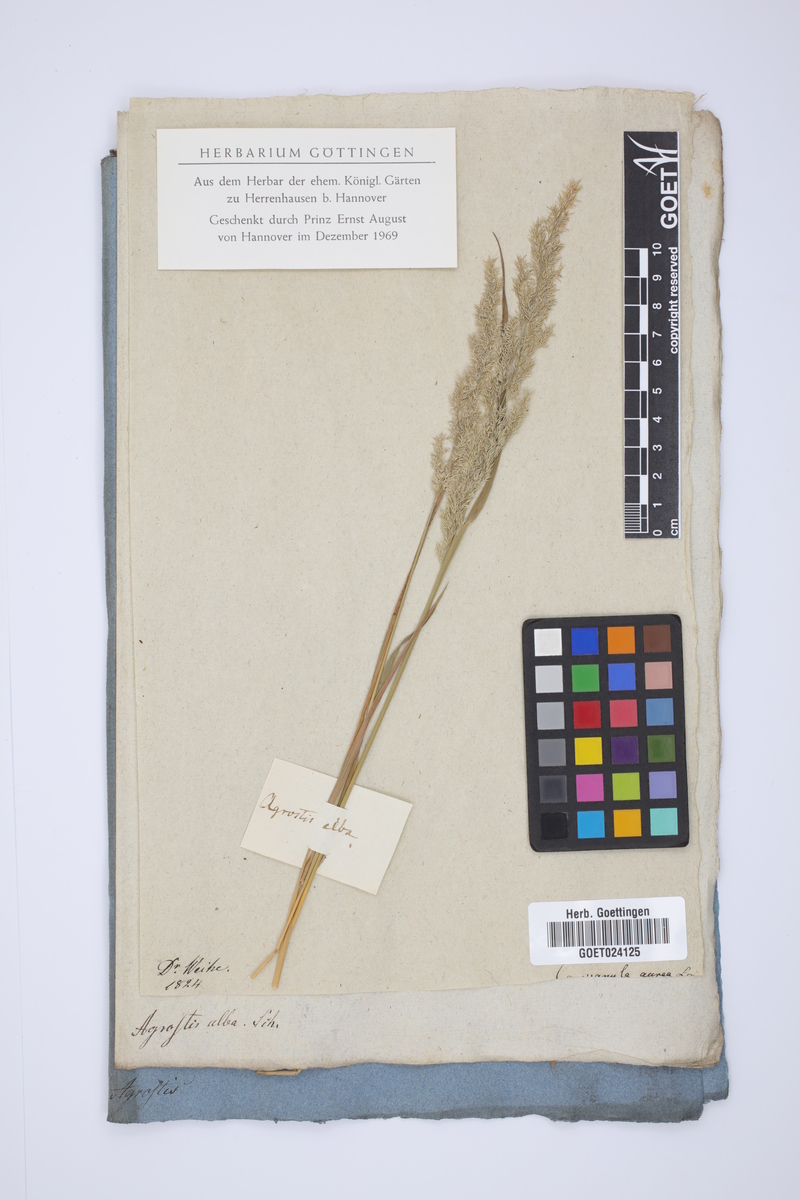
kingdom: Plantae
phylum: Tracheophyta
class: Liliopsida
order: Poales
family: Poaceae
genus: Poa
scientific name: Poa nemoralis
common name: Wood bluegrass
